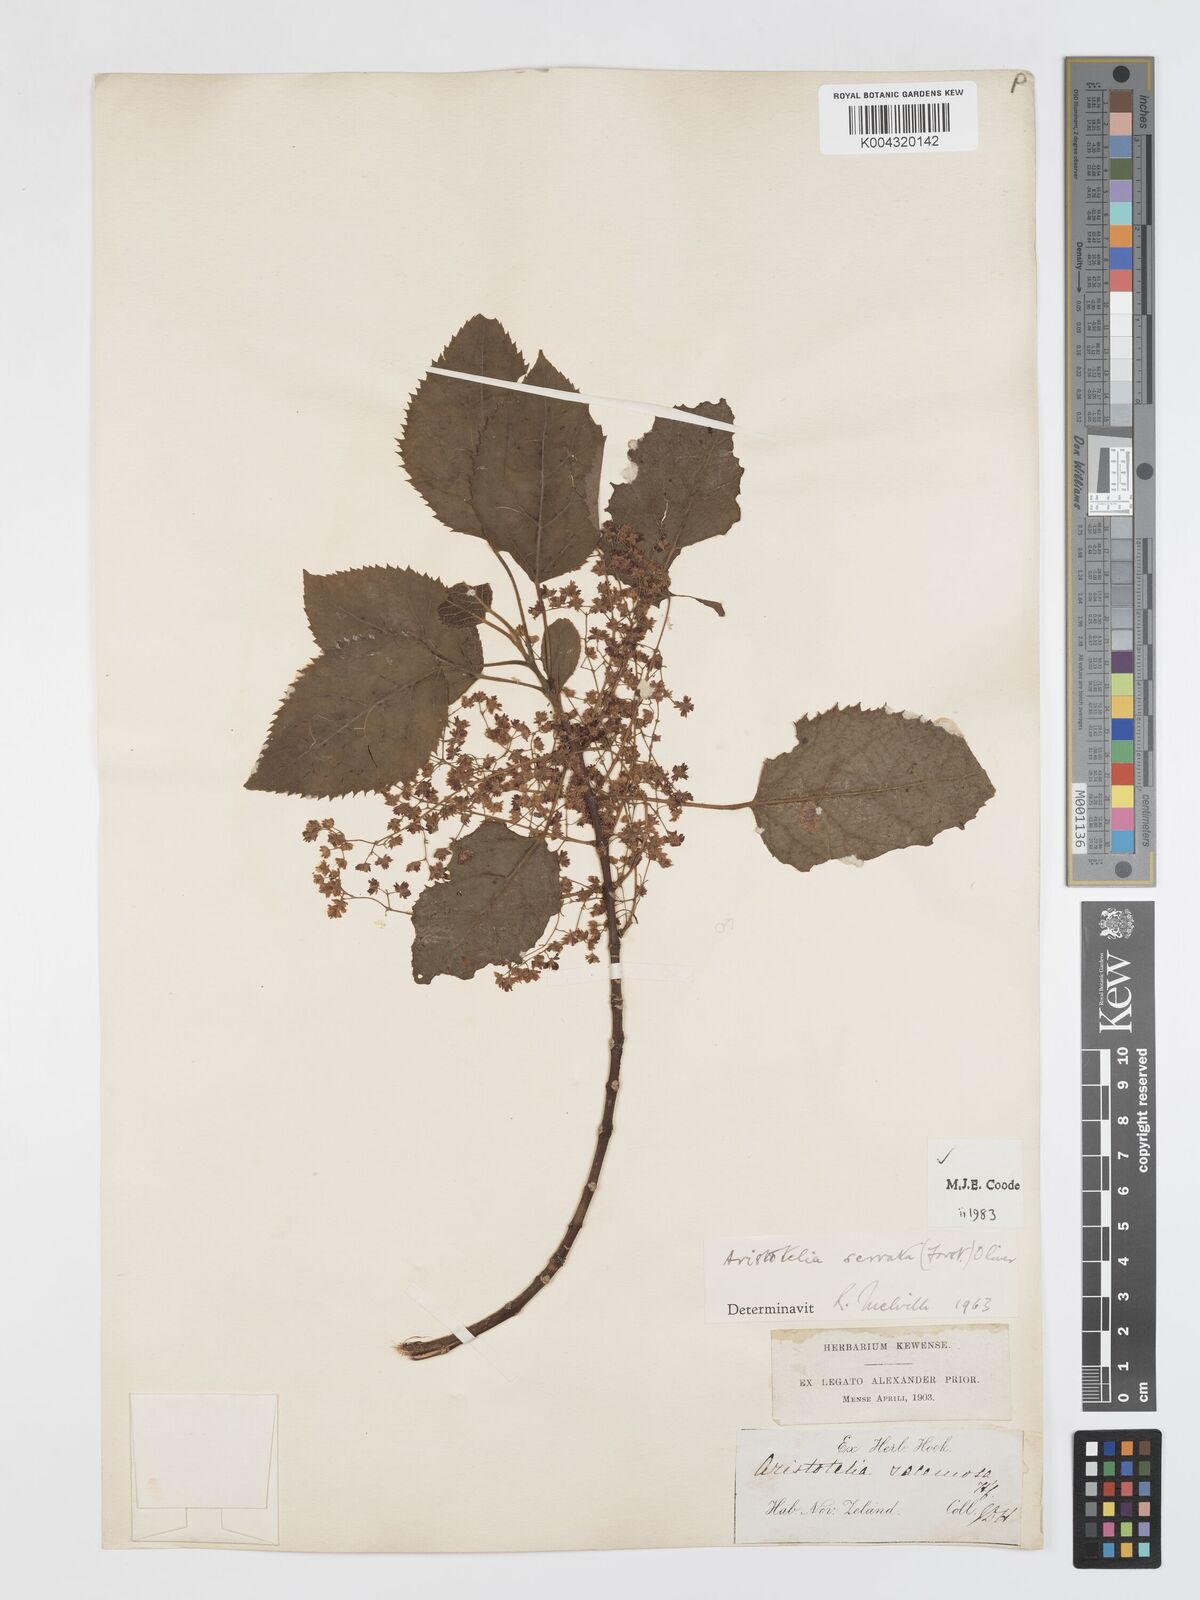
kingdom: Plantae
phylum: Tracheophyta
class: Magnoliopsida
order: Oxalidales
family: Elaeocarpaceae
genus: Aristotelia
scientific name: Aristotelia serrata
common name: New zealand wineberry
